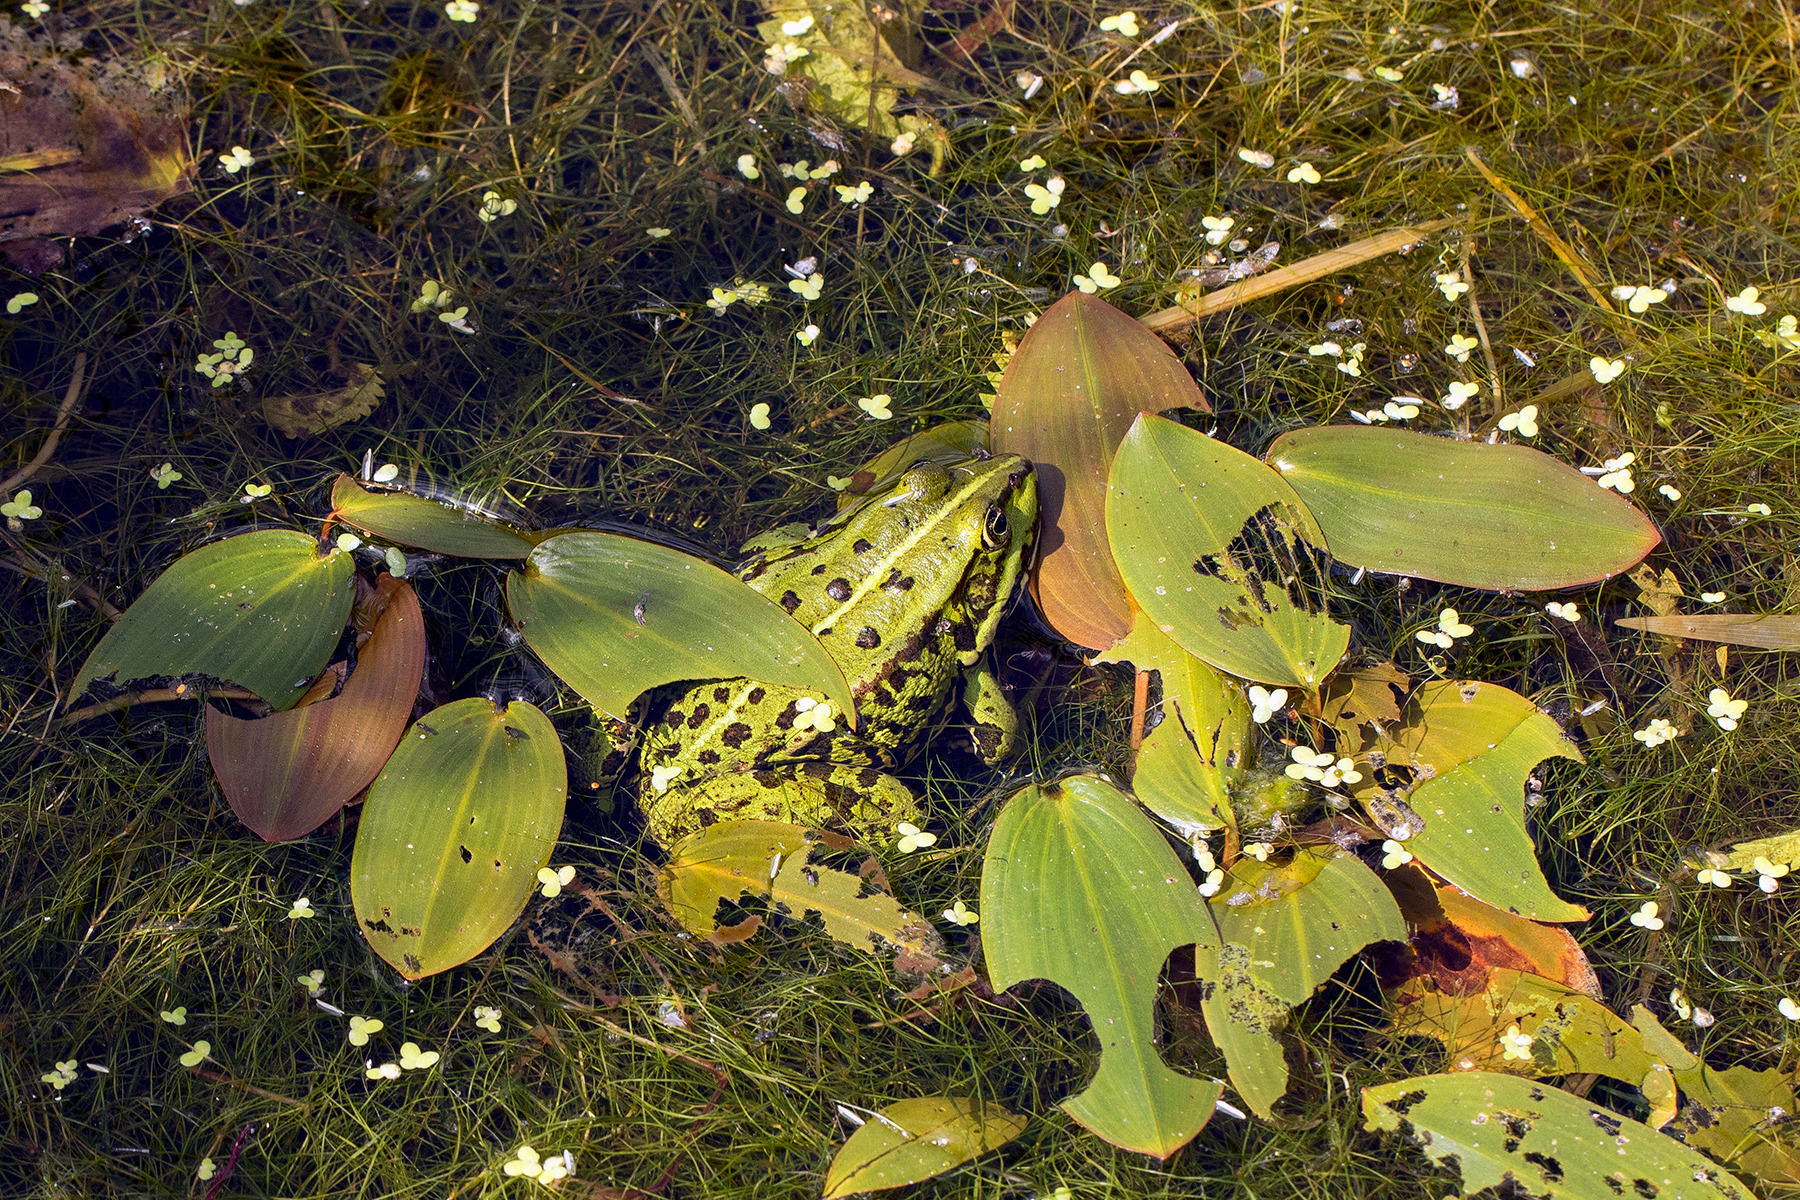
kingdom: Animalia
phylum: Chordata
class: Amphibia
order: Anura
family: Ranidae
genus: Pelophylax
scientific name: Pelophylax lessonae
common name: Grøn frø
